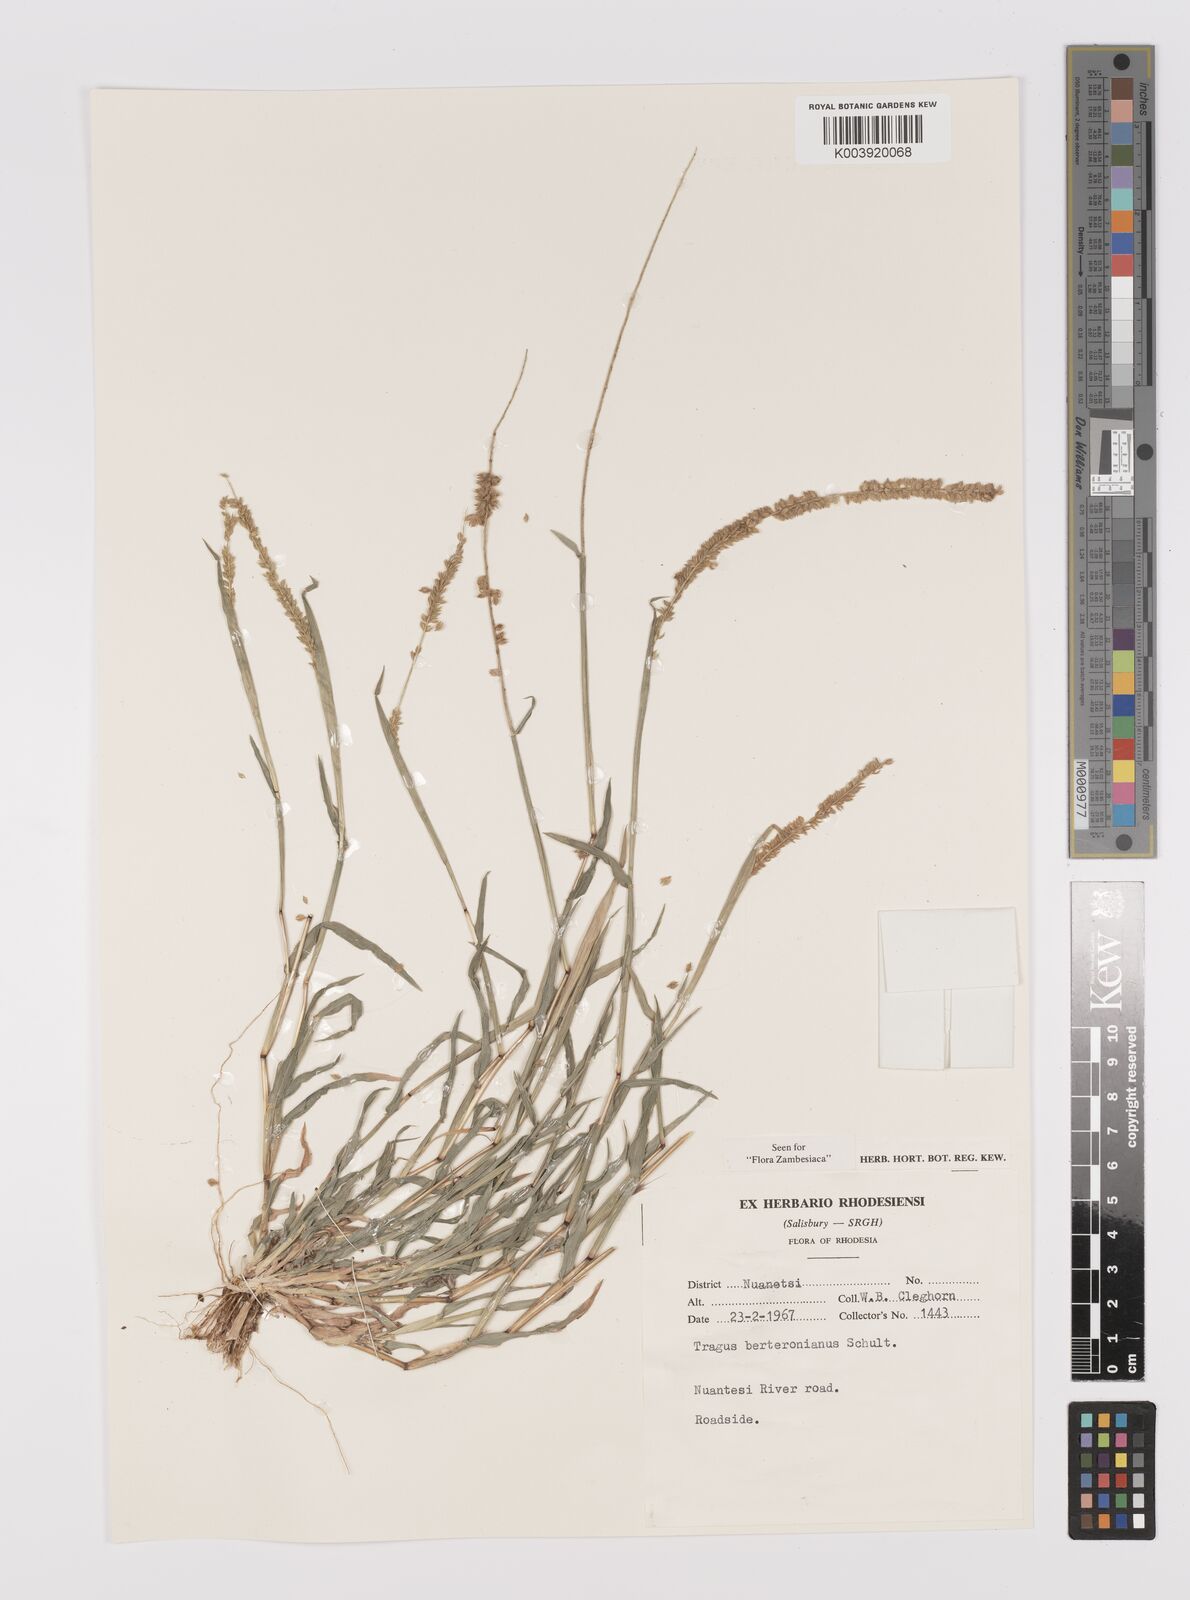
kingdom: Plantae
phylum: Tracheophyta
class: Liliopsida
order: Poales
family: Poaceae
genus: Tragus
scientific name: Tragus berteronianus
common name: African bur-grass
